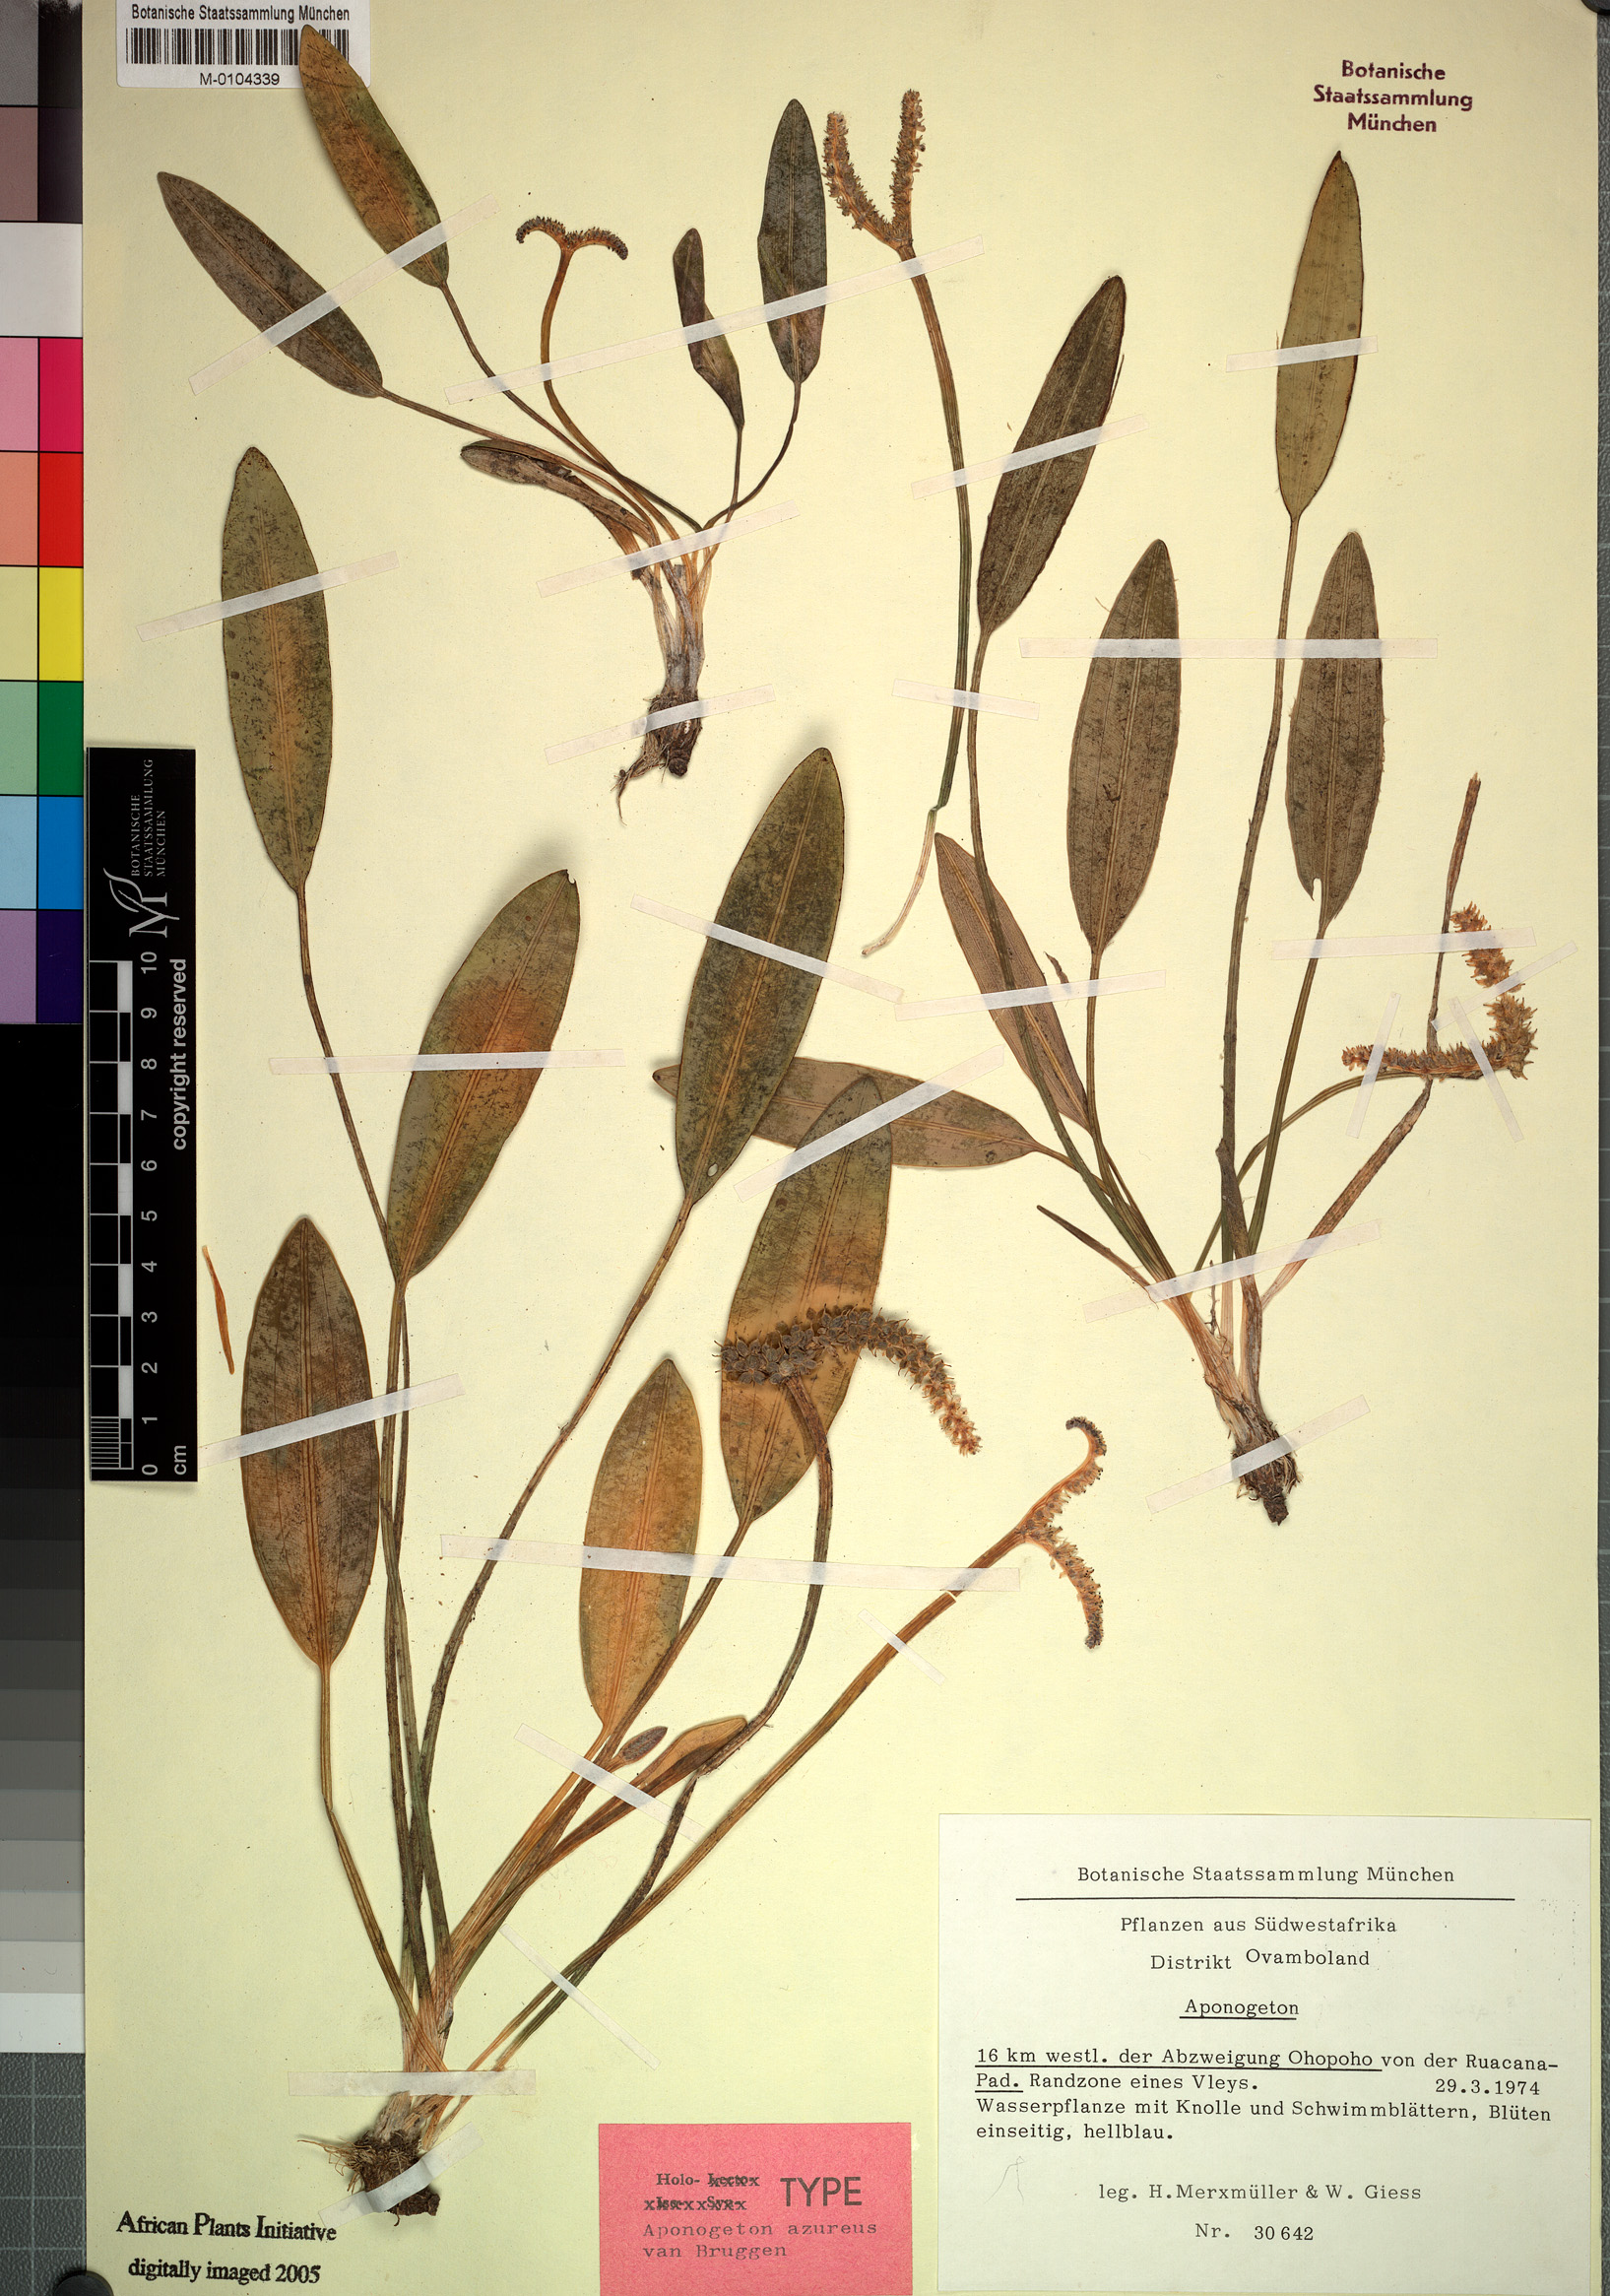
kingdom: Plantae
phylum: Tracheophyta
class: Liliopsida
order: Alismatales
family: Aponogetonaceae
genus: Aponogeton
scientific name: Aponogeton azureus
